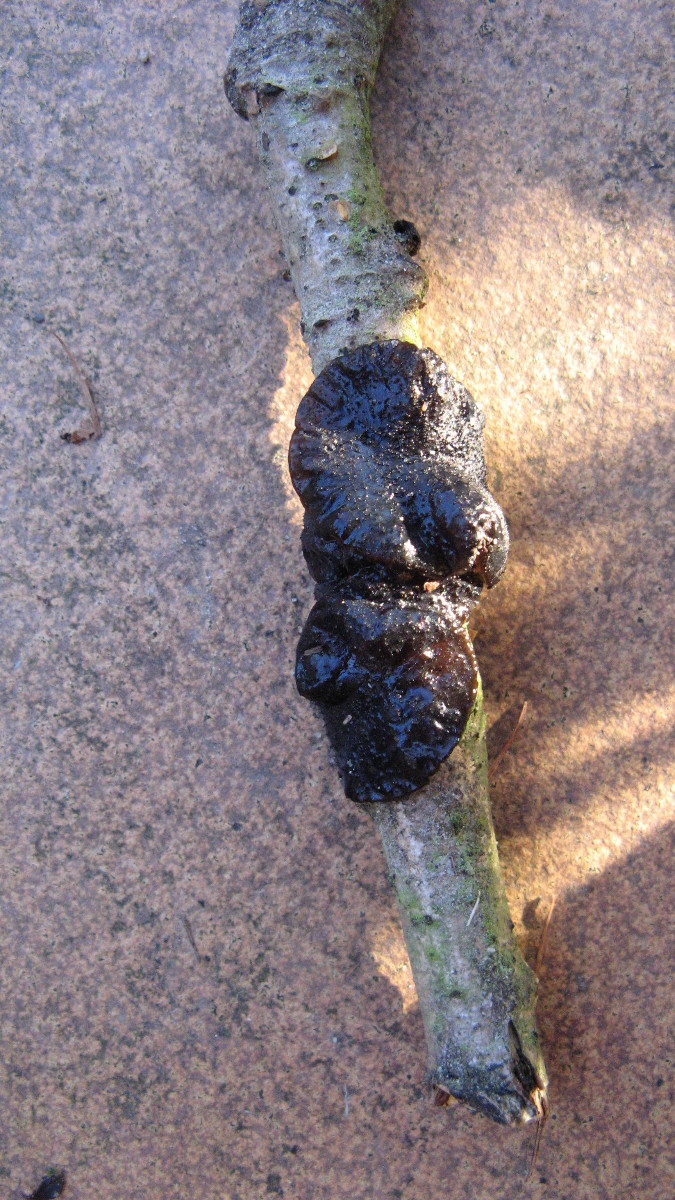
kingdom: Fungi
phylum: Basidiomycota
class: Agaricomycetes
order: Auriculariales
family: Auriculariaceae
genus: Exidia
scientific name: Exidia glandulosa
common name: ege-bævretop
